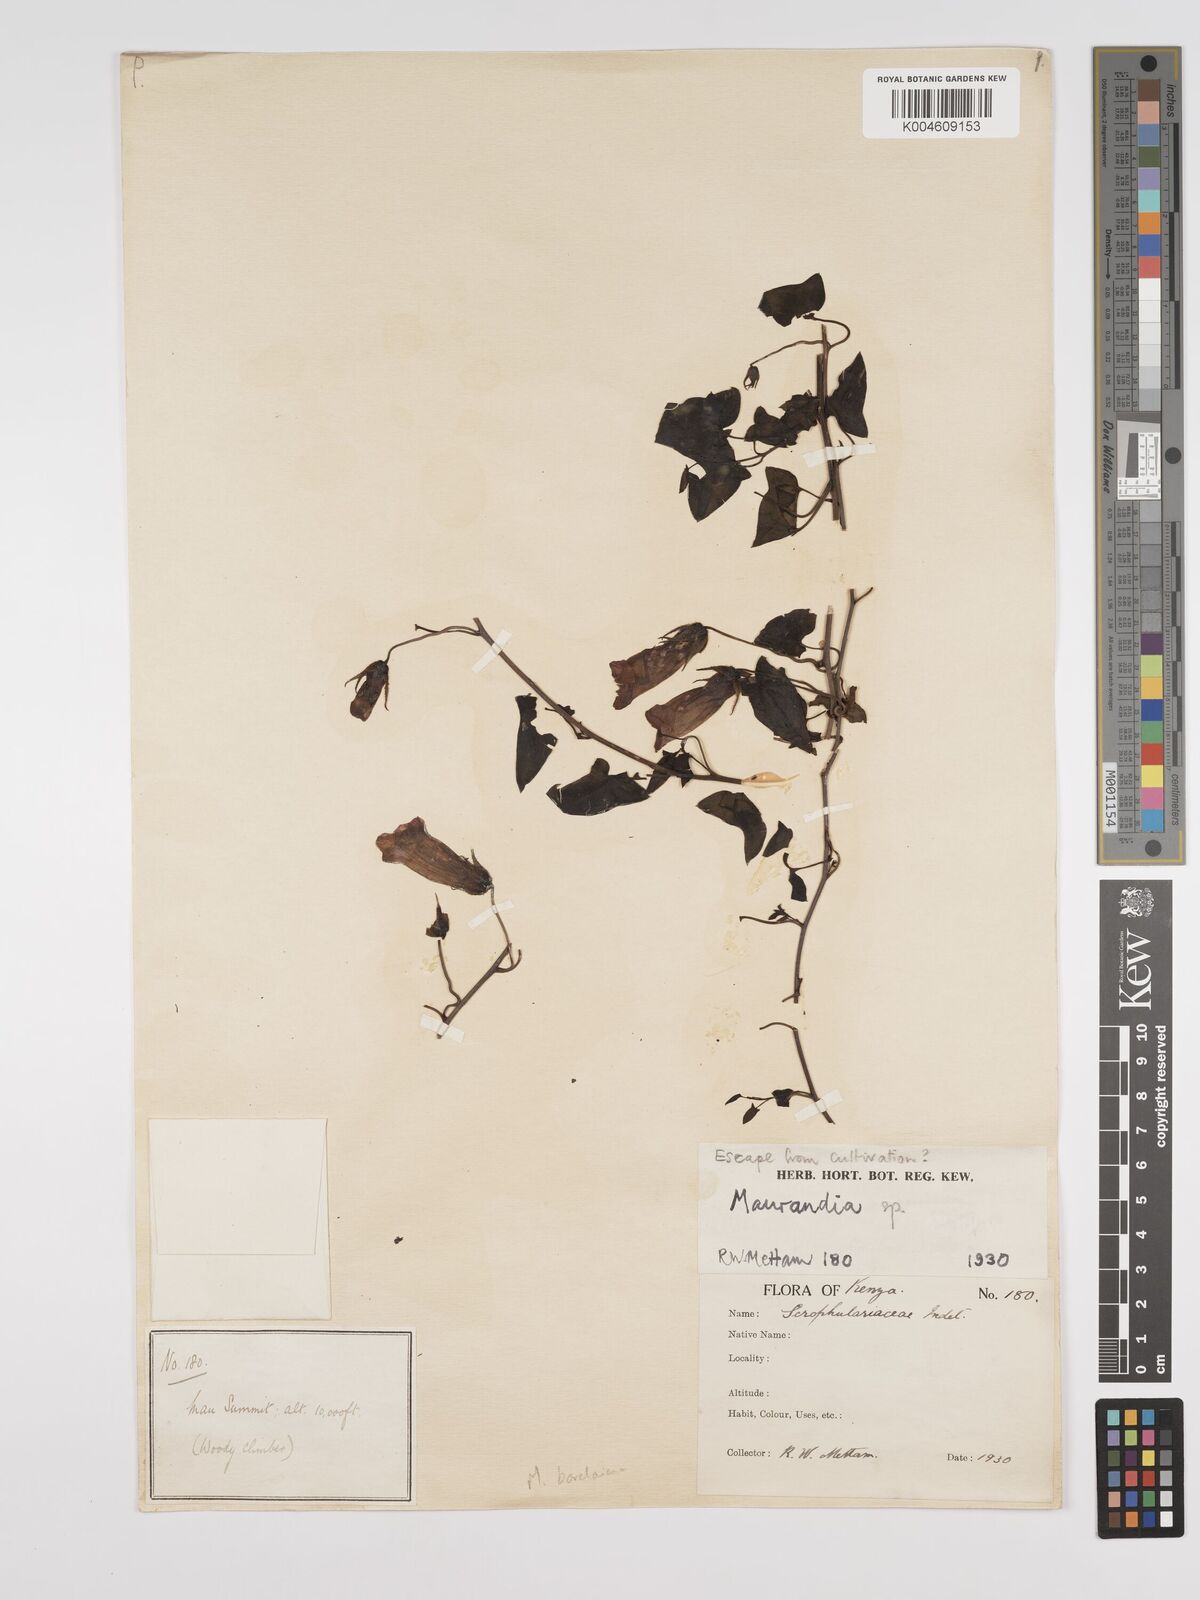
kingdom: Plantae
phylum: Tracheophyta
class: Magnoliopsida
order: Lamiales
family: Plantaginaceae
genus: Maurandya
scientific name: Maurandya barclayana
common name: Mexican viper
